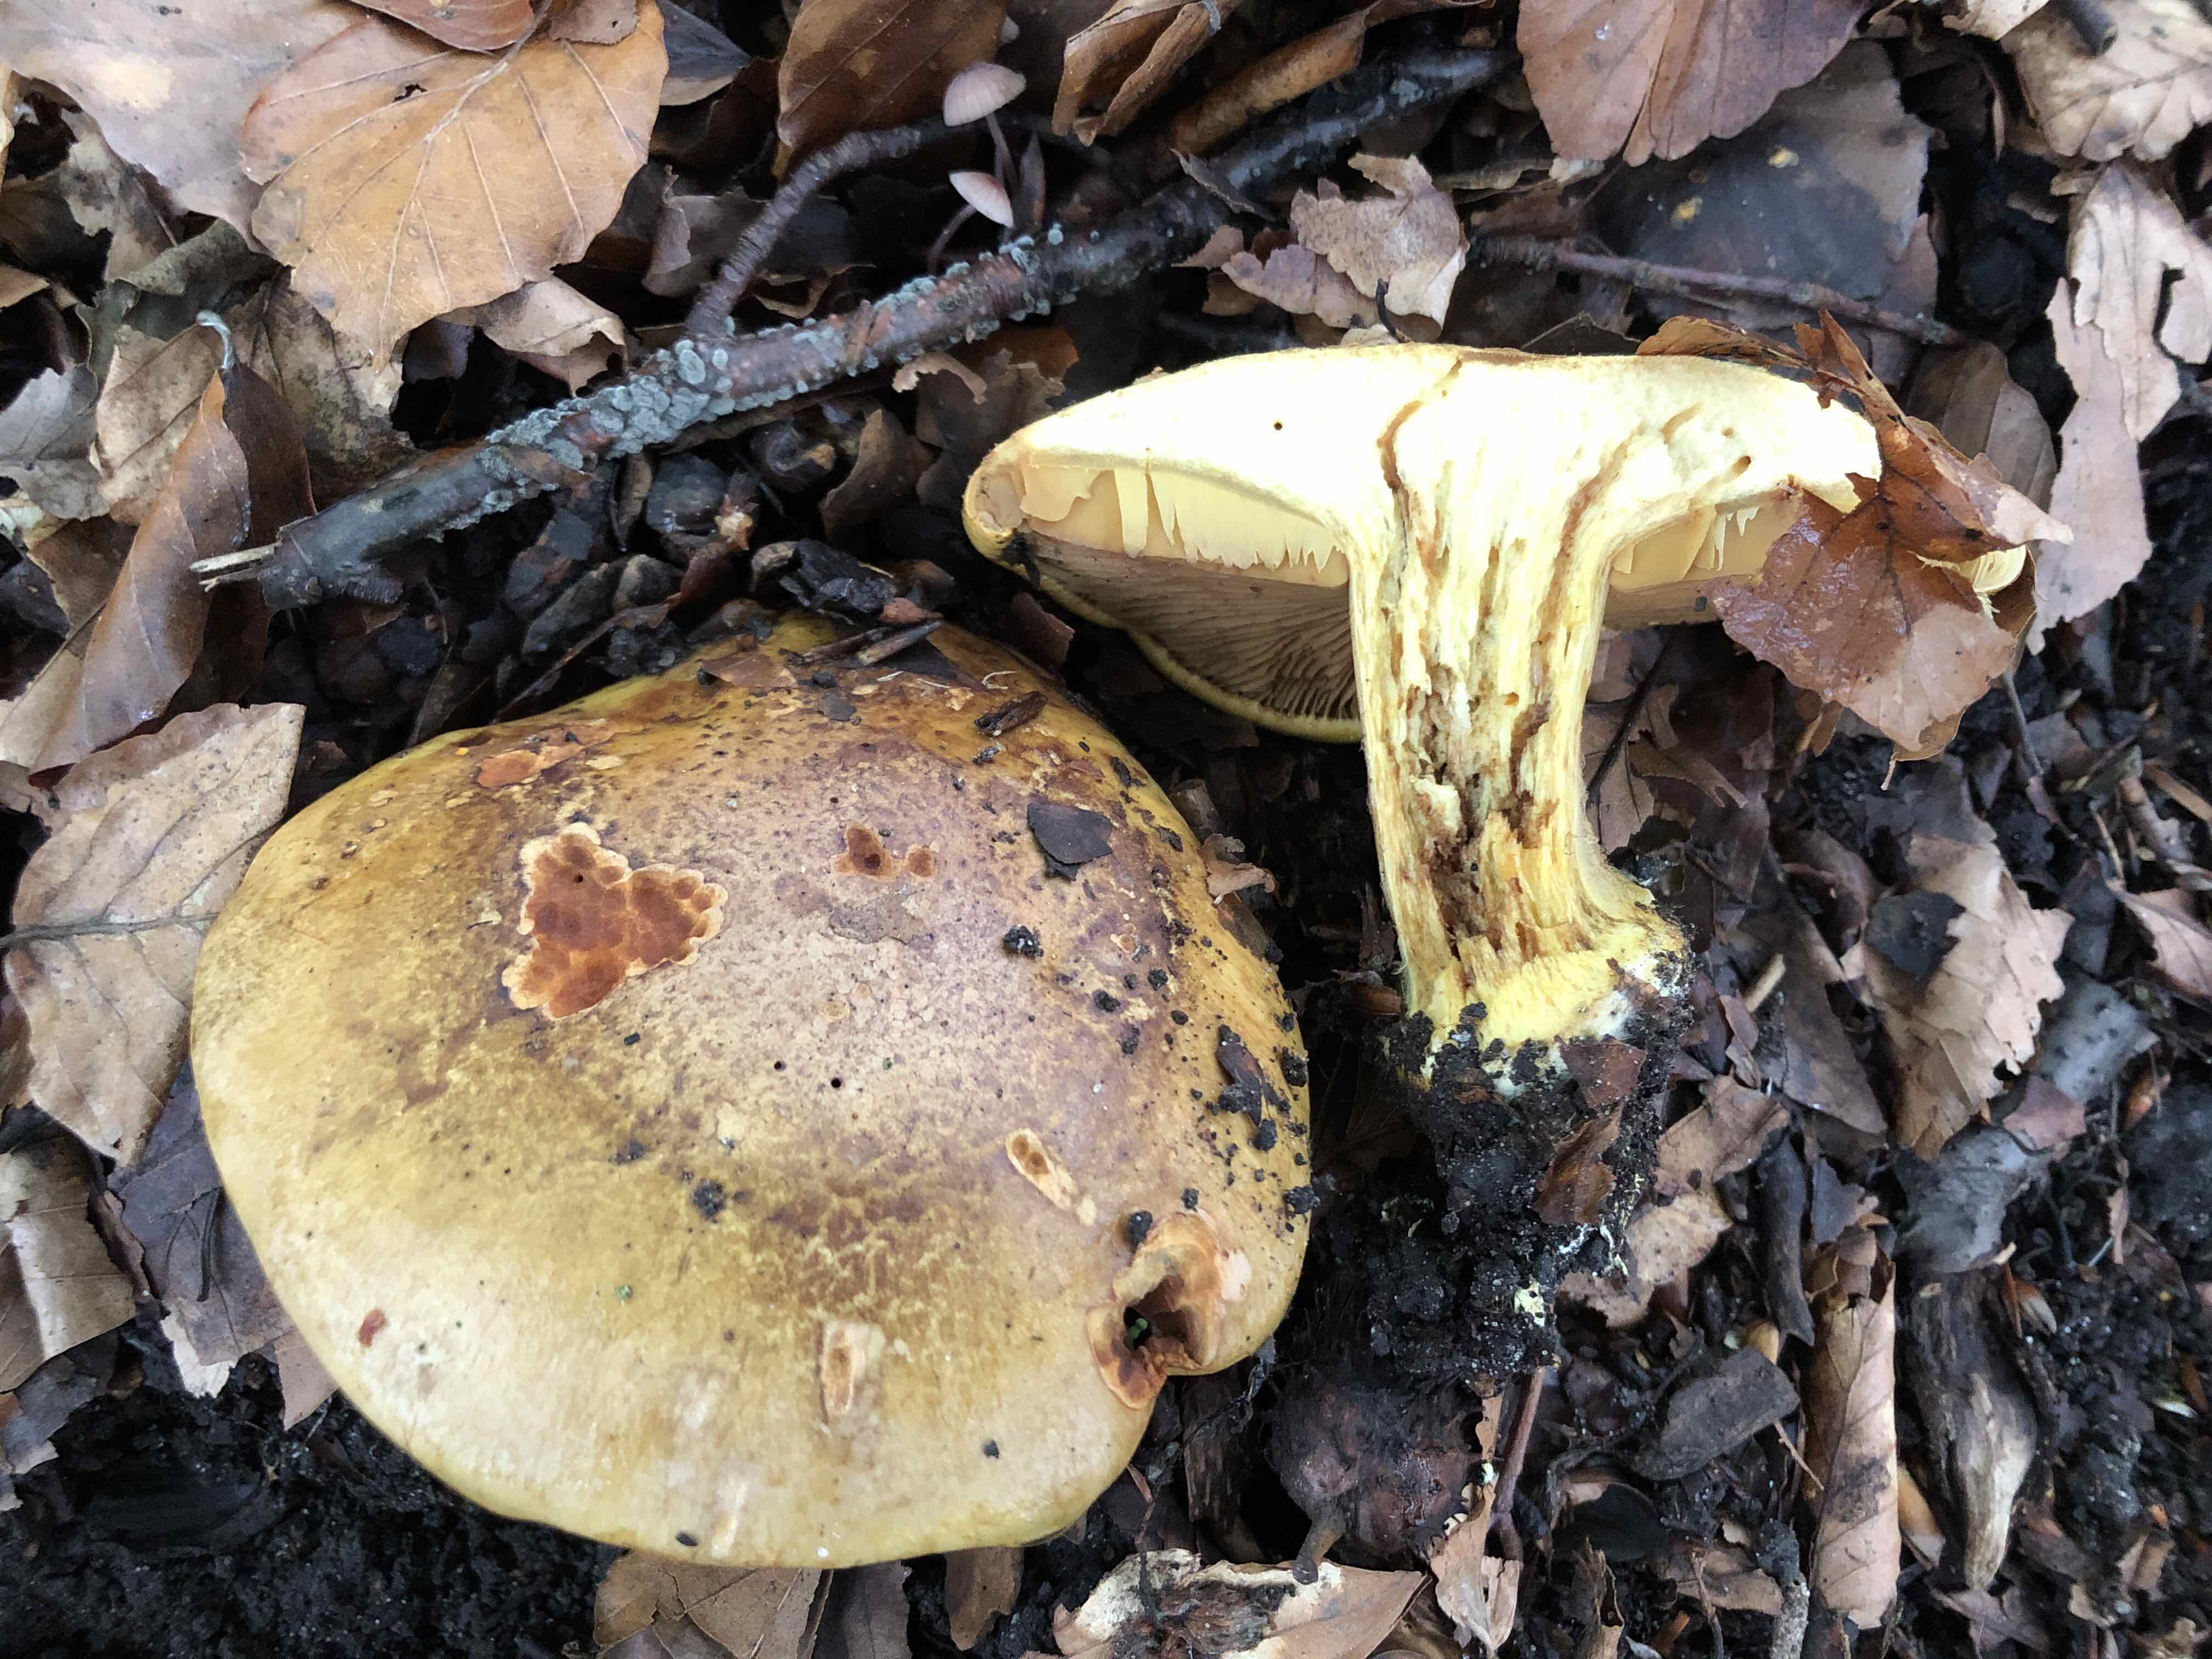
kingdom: Fungi
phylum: Basidiomycota
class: Agaricomycetes
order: Agaricales
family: Cortinariaceae
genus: Calonarius
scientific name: Calonarius alcalinophilus
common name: gyldenbrun slørhat
